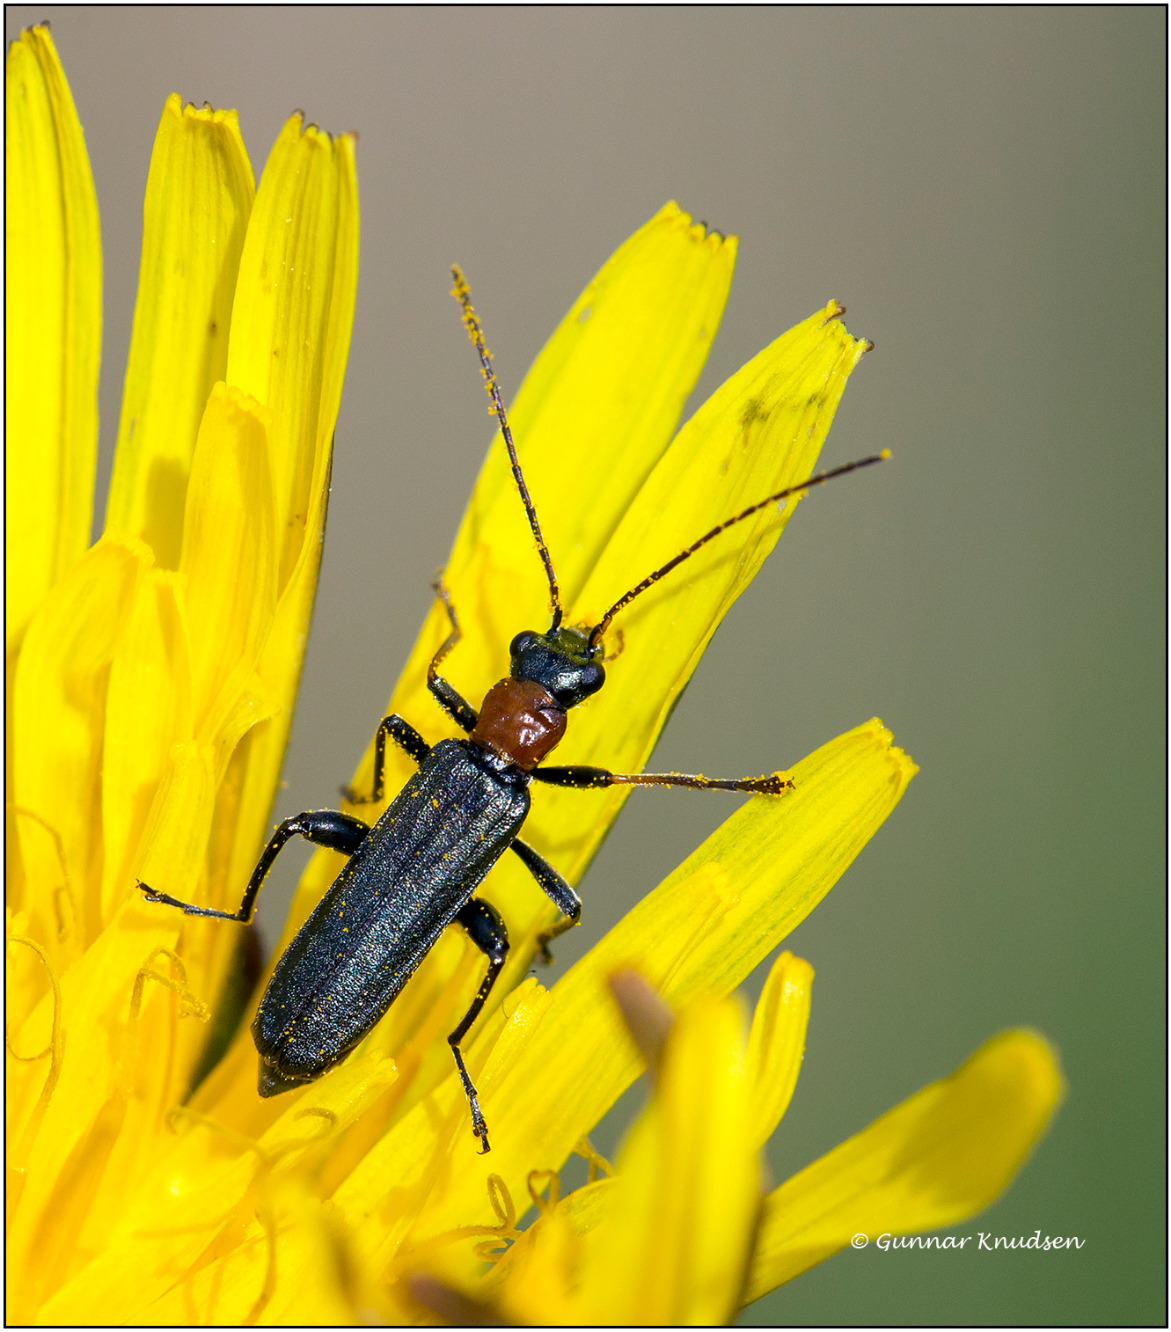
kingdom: Animalia
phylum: Arthropoda
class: Insecta
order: Coleoptera
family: Oedemeridae
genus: Oedemera
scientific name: Oedemera croceicollis
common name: Orangebrystet solbille
